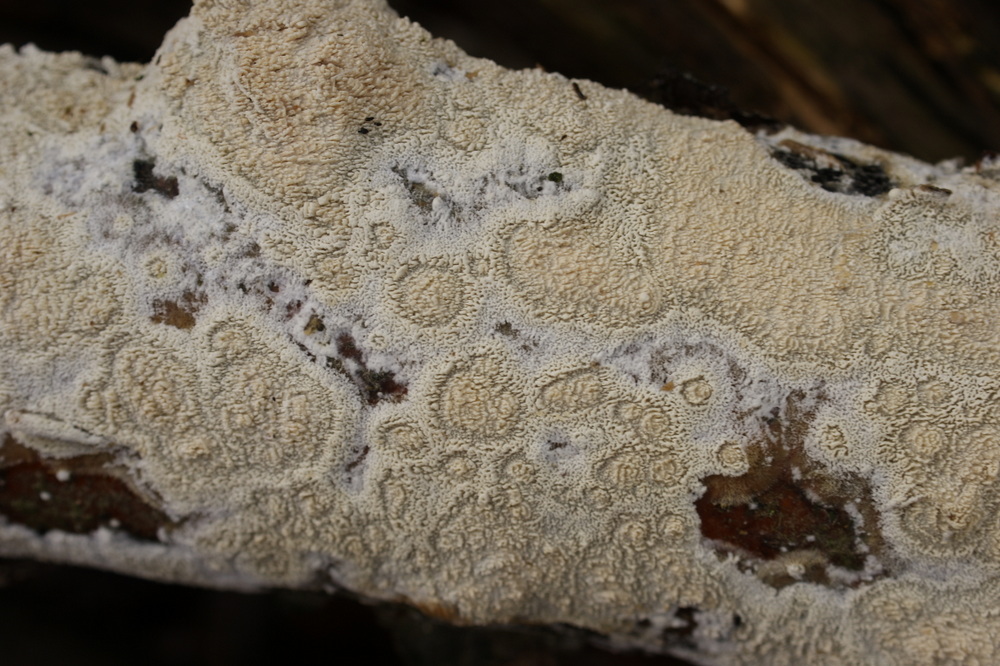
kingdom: Fungi
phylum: Basidiomycota
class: Agaricomycetes
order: Hymenochaetales
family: Schizoporaceae
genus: Schizopora
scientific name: Schizopora paradoxa
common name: hvid tandsvamp
